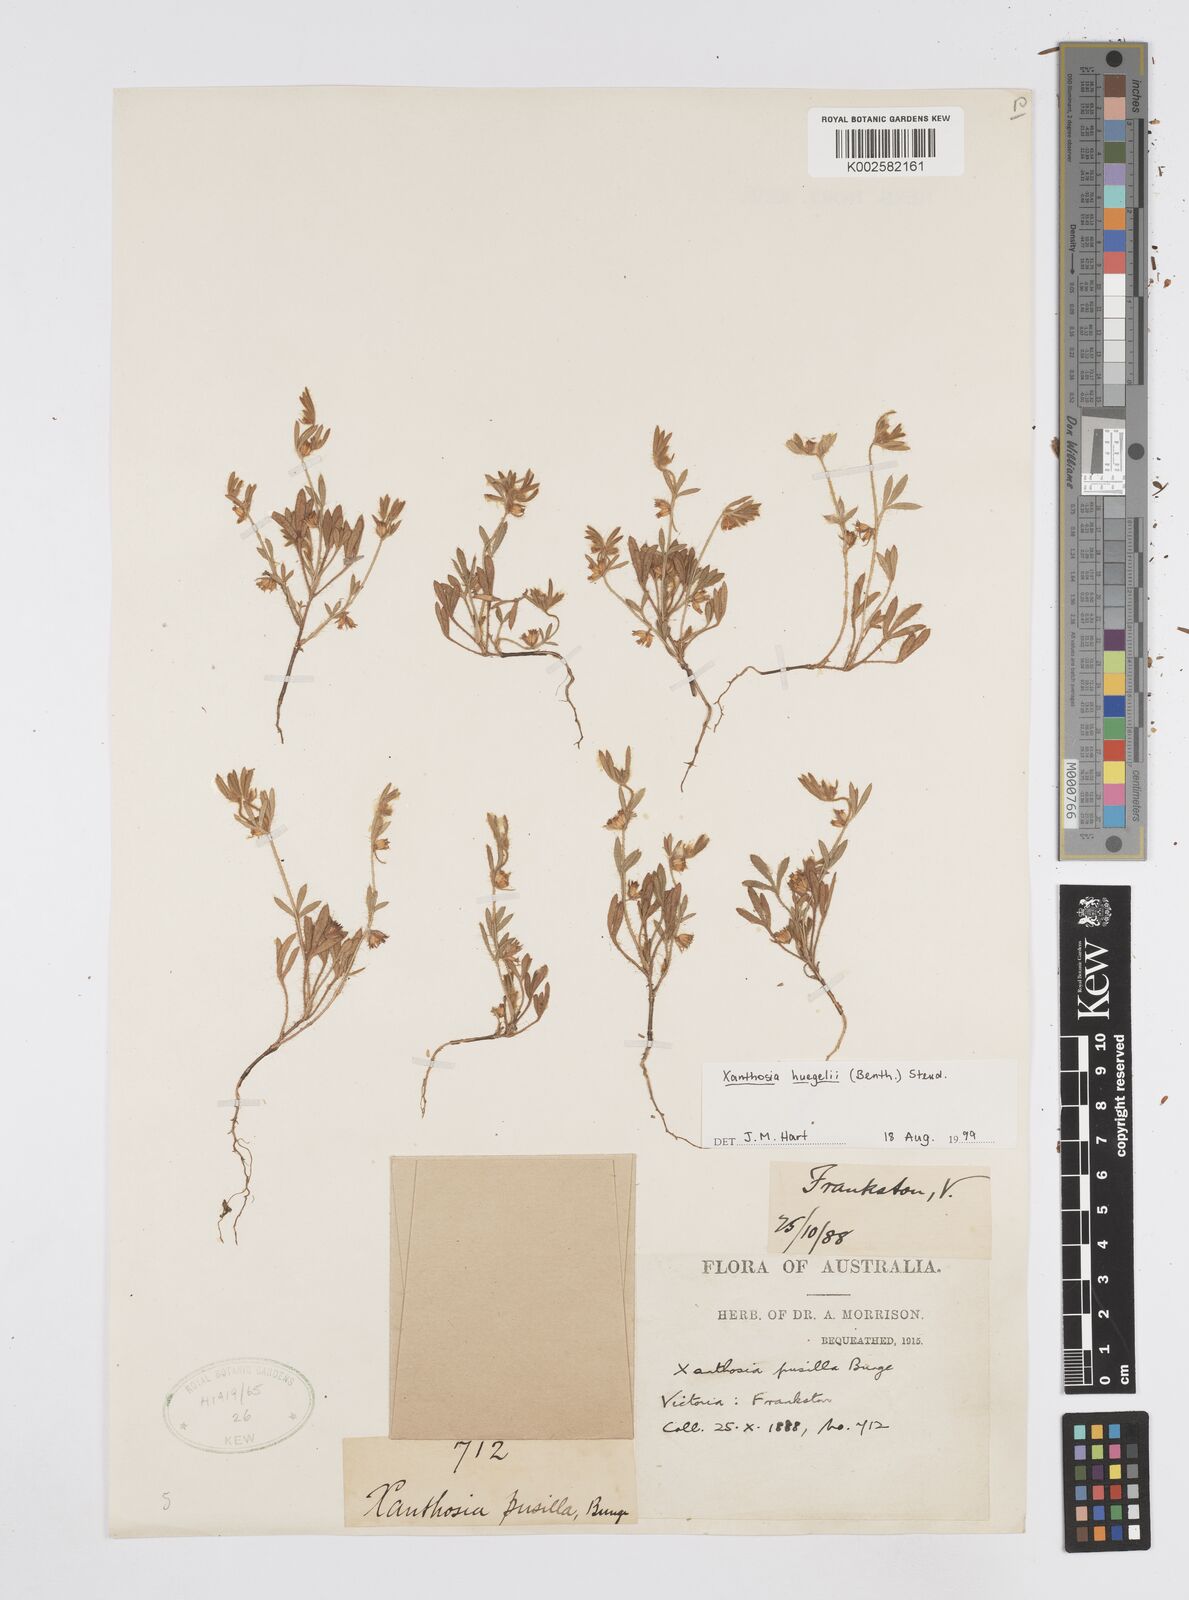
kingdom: Plantae
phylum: Tracheophyta
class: Magnoliopsida
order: Apiales
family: Apiaceae
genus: Xanthosia
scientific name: Xanthosia huegelii
